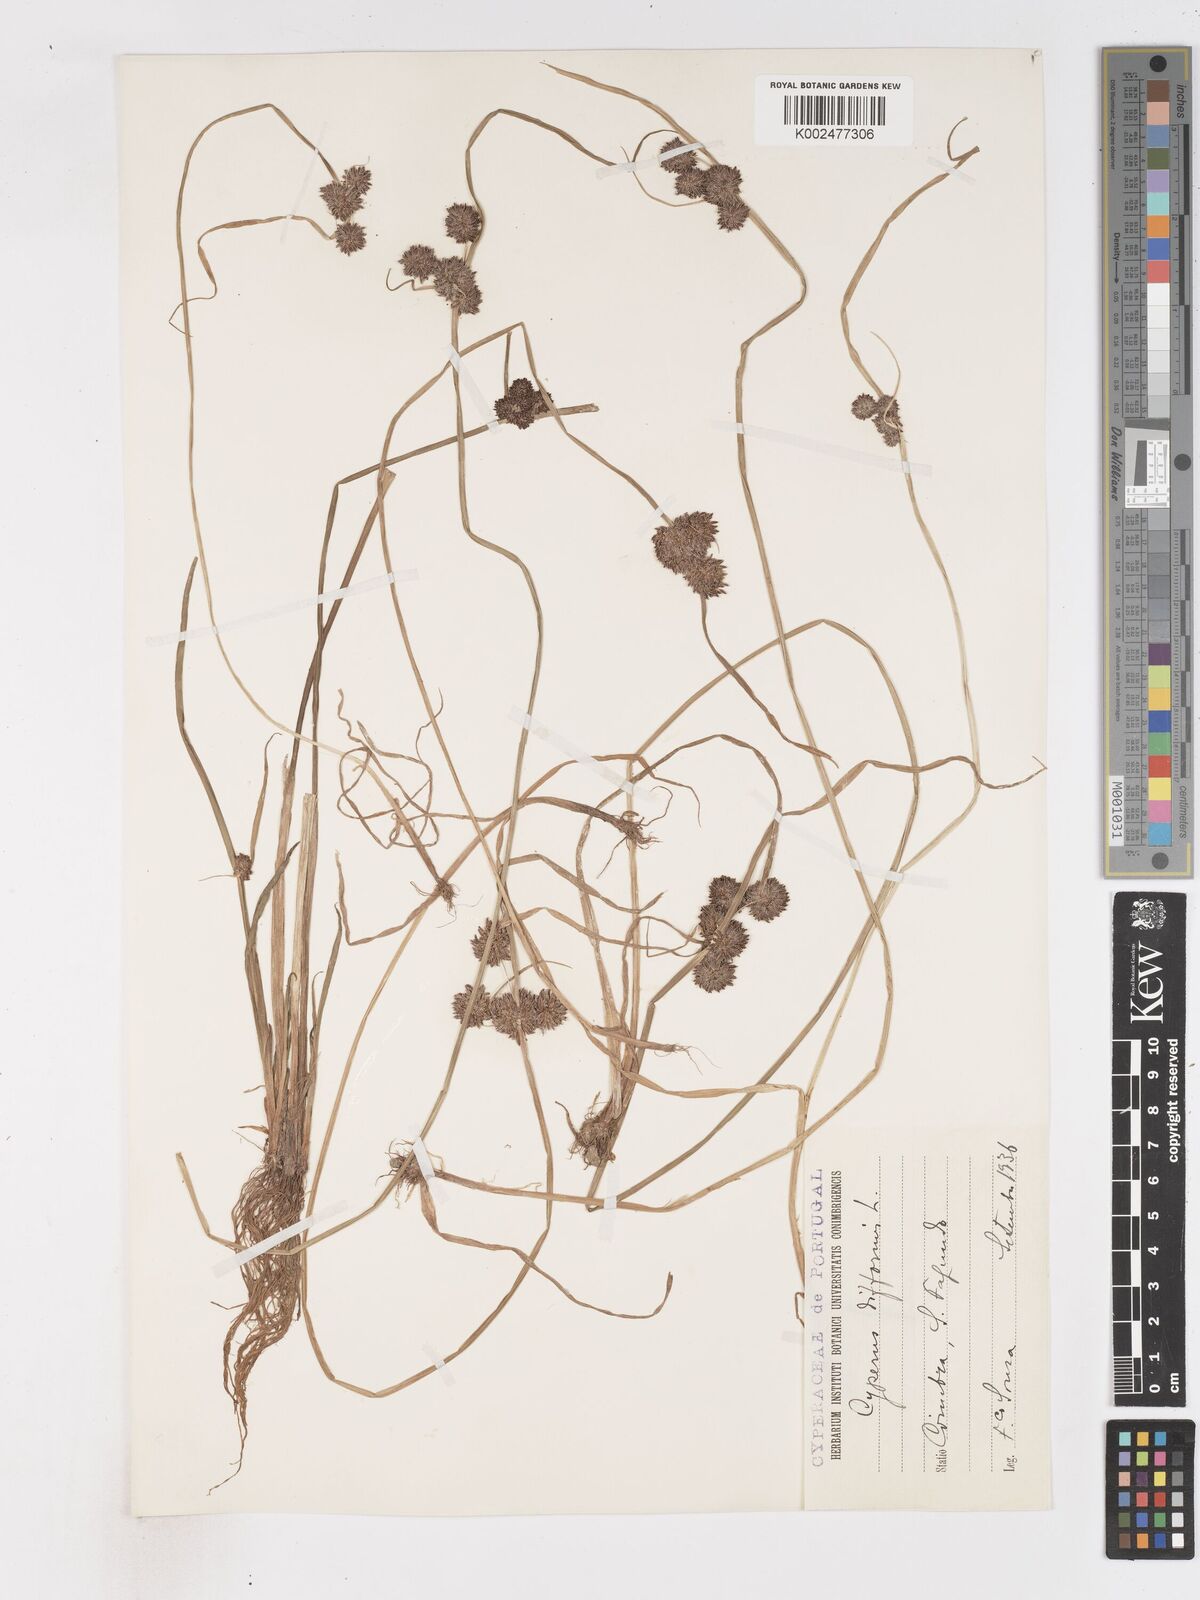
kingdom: Plantae
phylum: Tracheophyta
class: Liliopsida
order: Poales
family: Cyperaceae
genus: Cyperus
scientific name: Cyperus difformis
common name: Variable flatsedge
